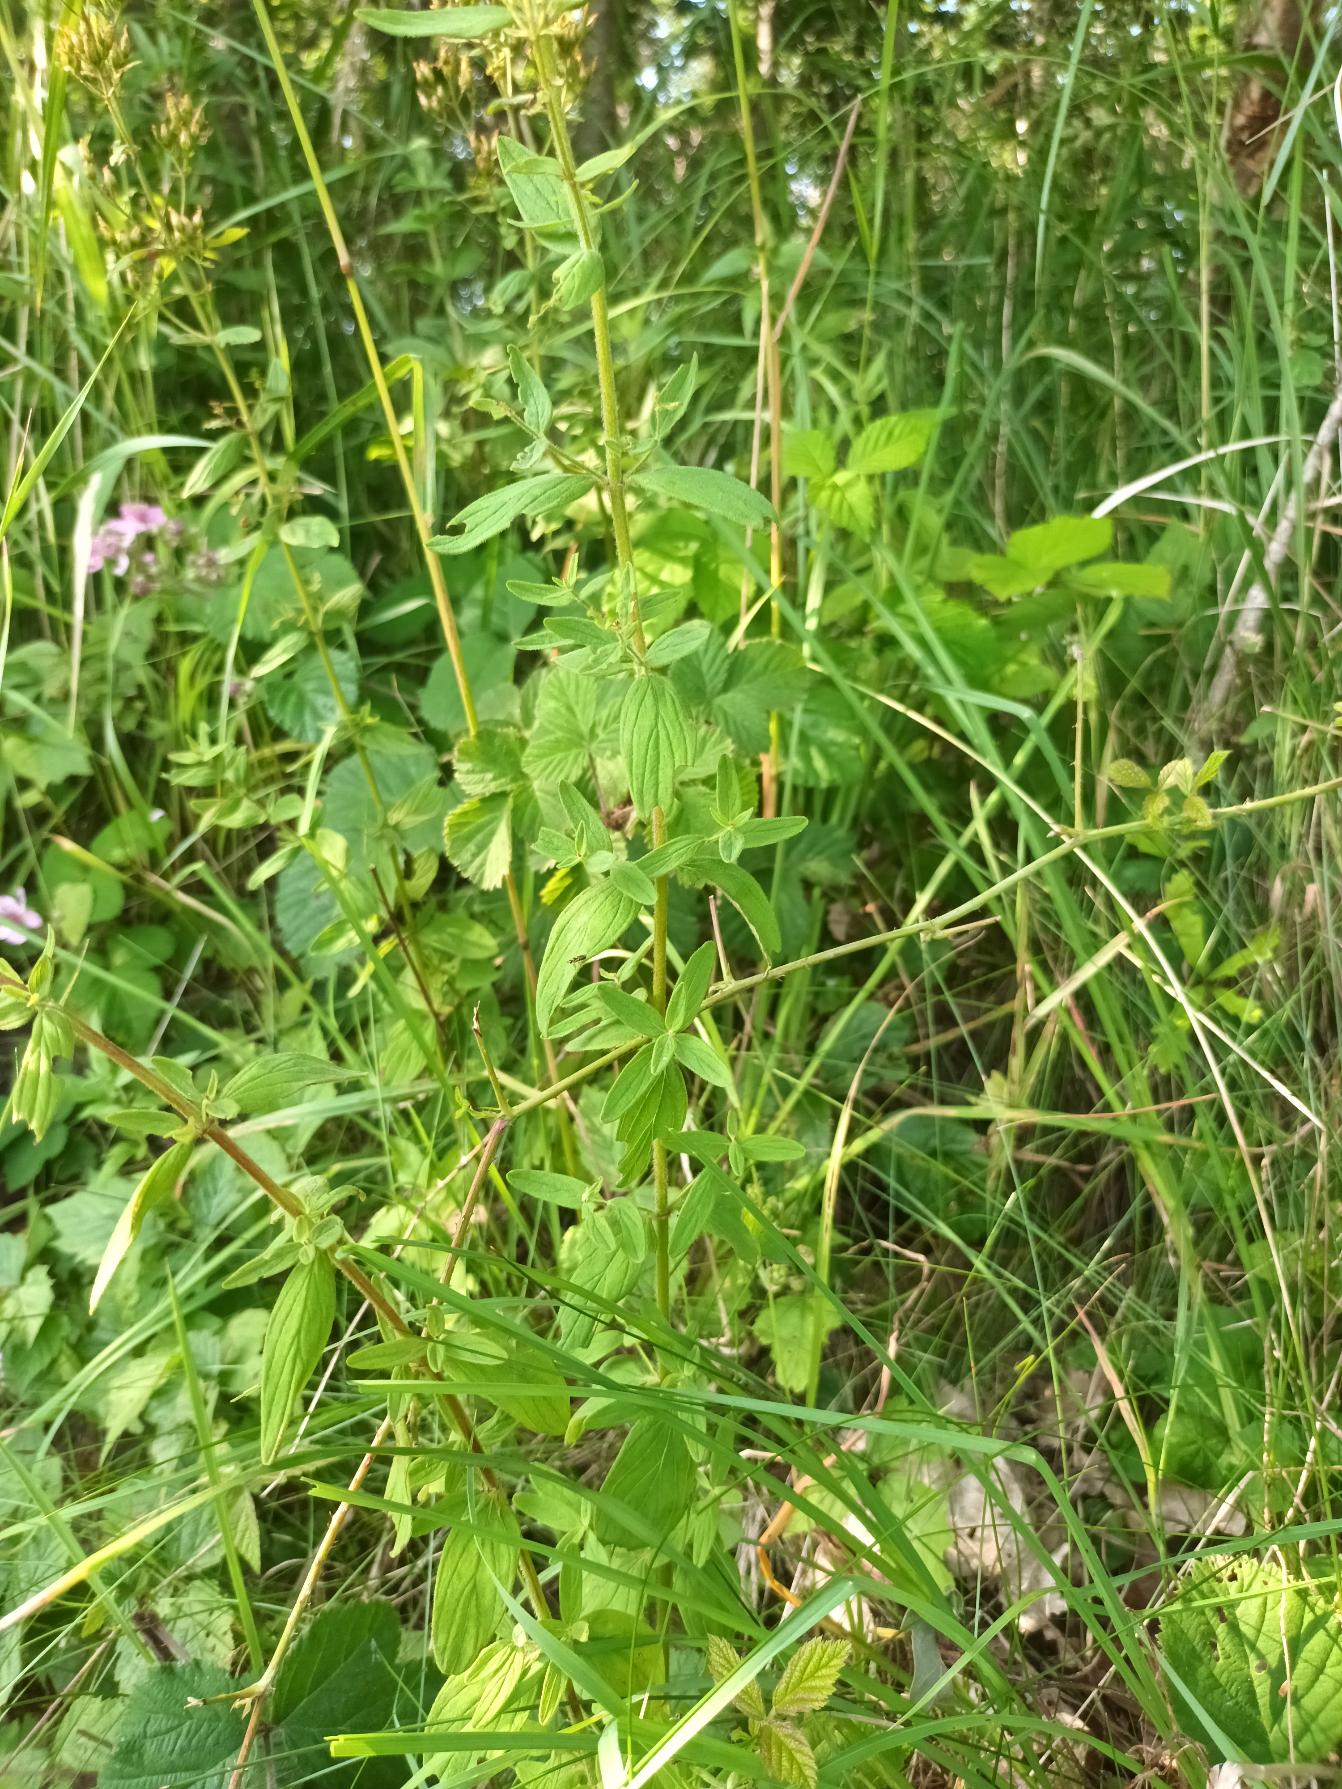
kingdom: Plantae
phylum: Tracheophyta
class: Magnoliopsida
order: Malpighiales
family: Hypericaceae
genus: Hypericum
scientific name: Hypericum hirsutum
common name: Lådden perikon
